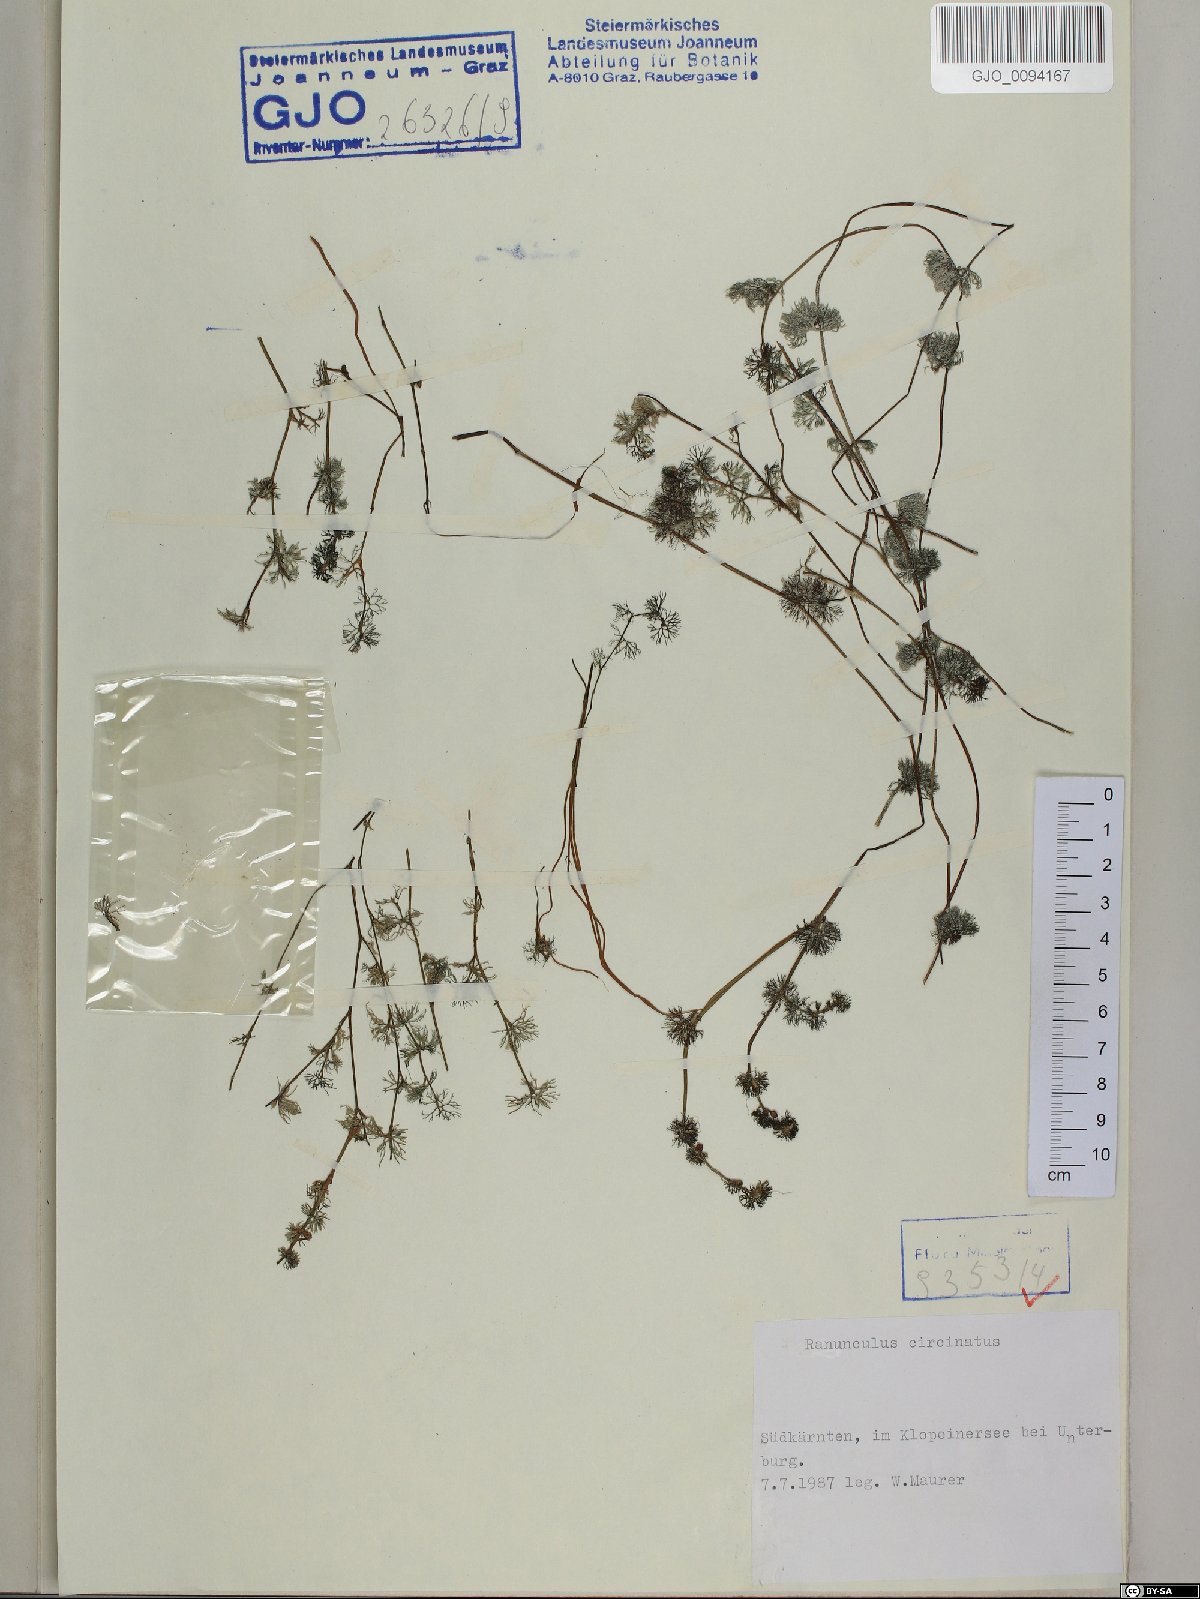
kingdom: Plantae
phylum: Tracheophyta
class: Magnoliopsida
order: Ranunculales
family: Ranunculaceae
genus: Ranunculus
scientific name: Ranunculus circinatus
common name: Fan-leaved water-crowfoot
